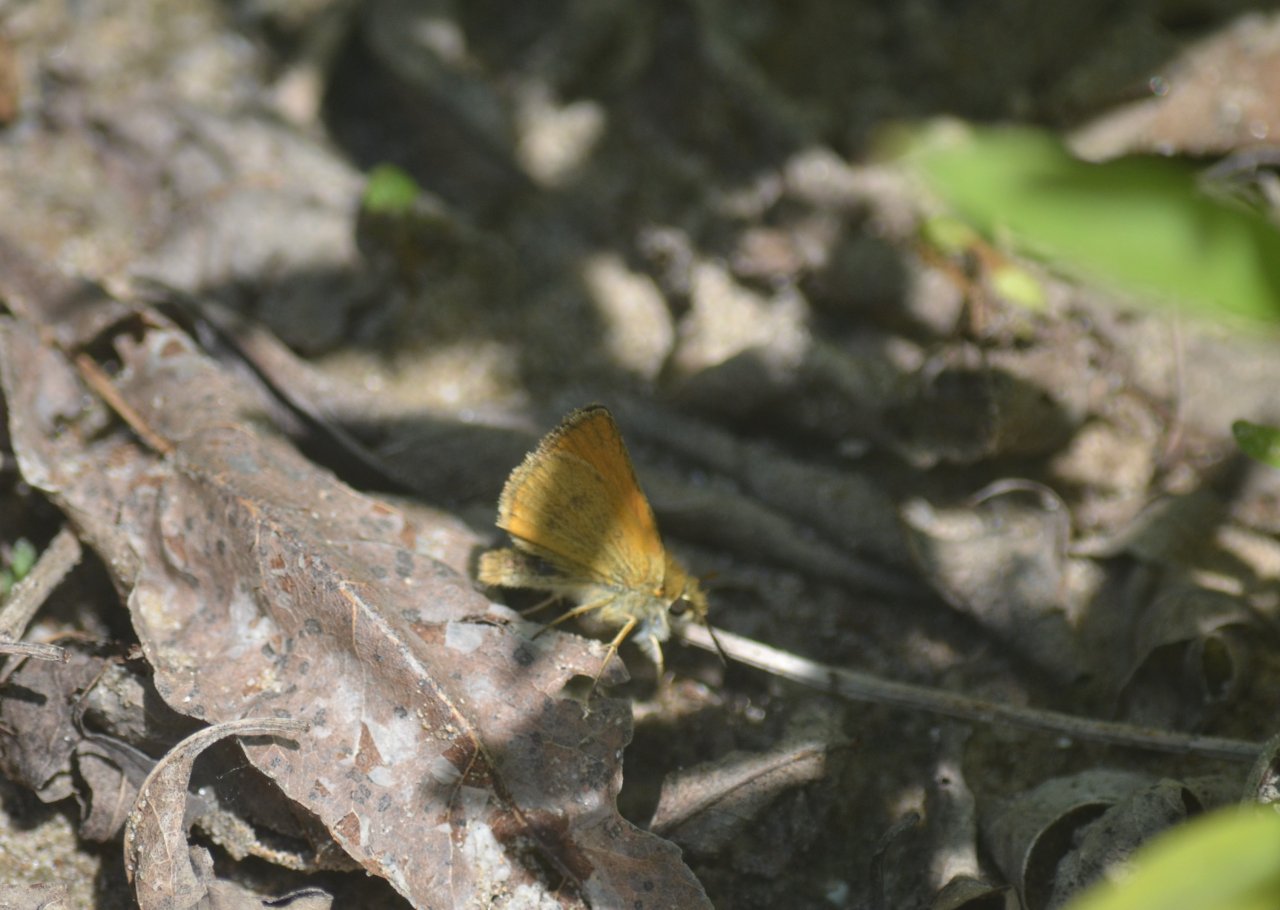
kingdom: Animalia
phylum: Arthropoda
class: Insecta
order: Lepidoptera
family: Hesperiidae
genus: Thymelicus
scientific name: Thymelicus lineola
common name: European Skipper
